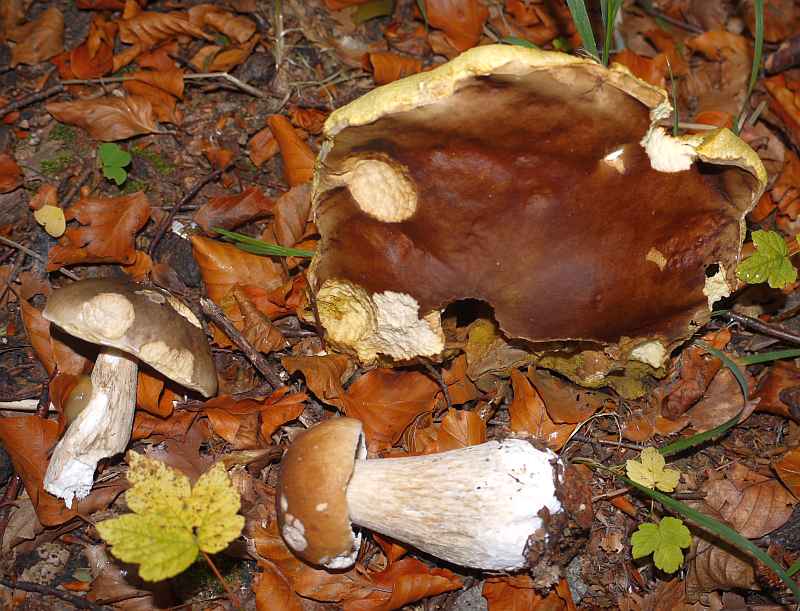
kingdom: Fungi
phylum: Basidiomycota
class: Agaricomycetes
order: Boletales
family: Boletaceae
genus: Boletus
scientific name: Boletus edulis
